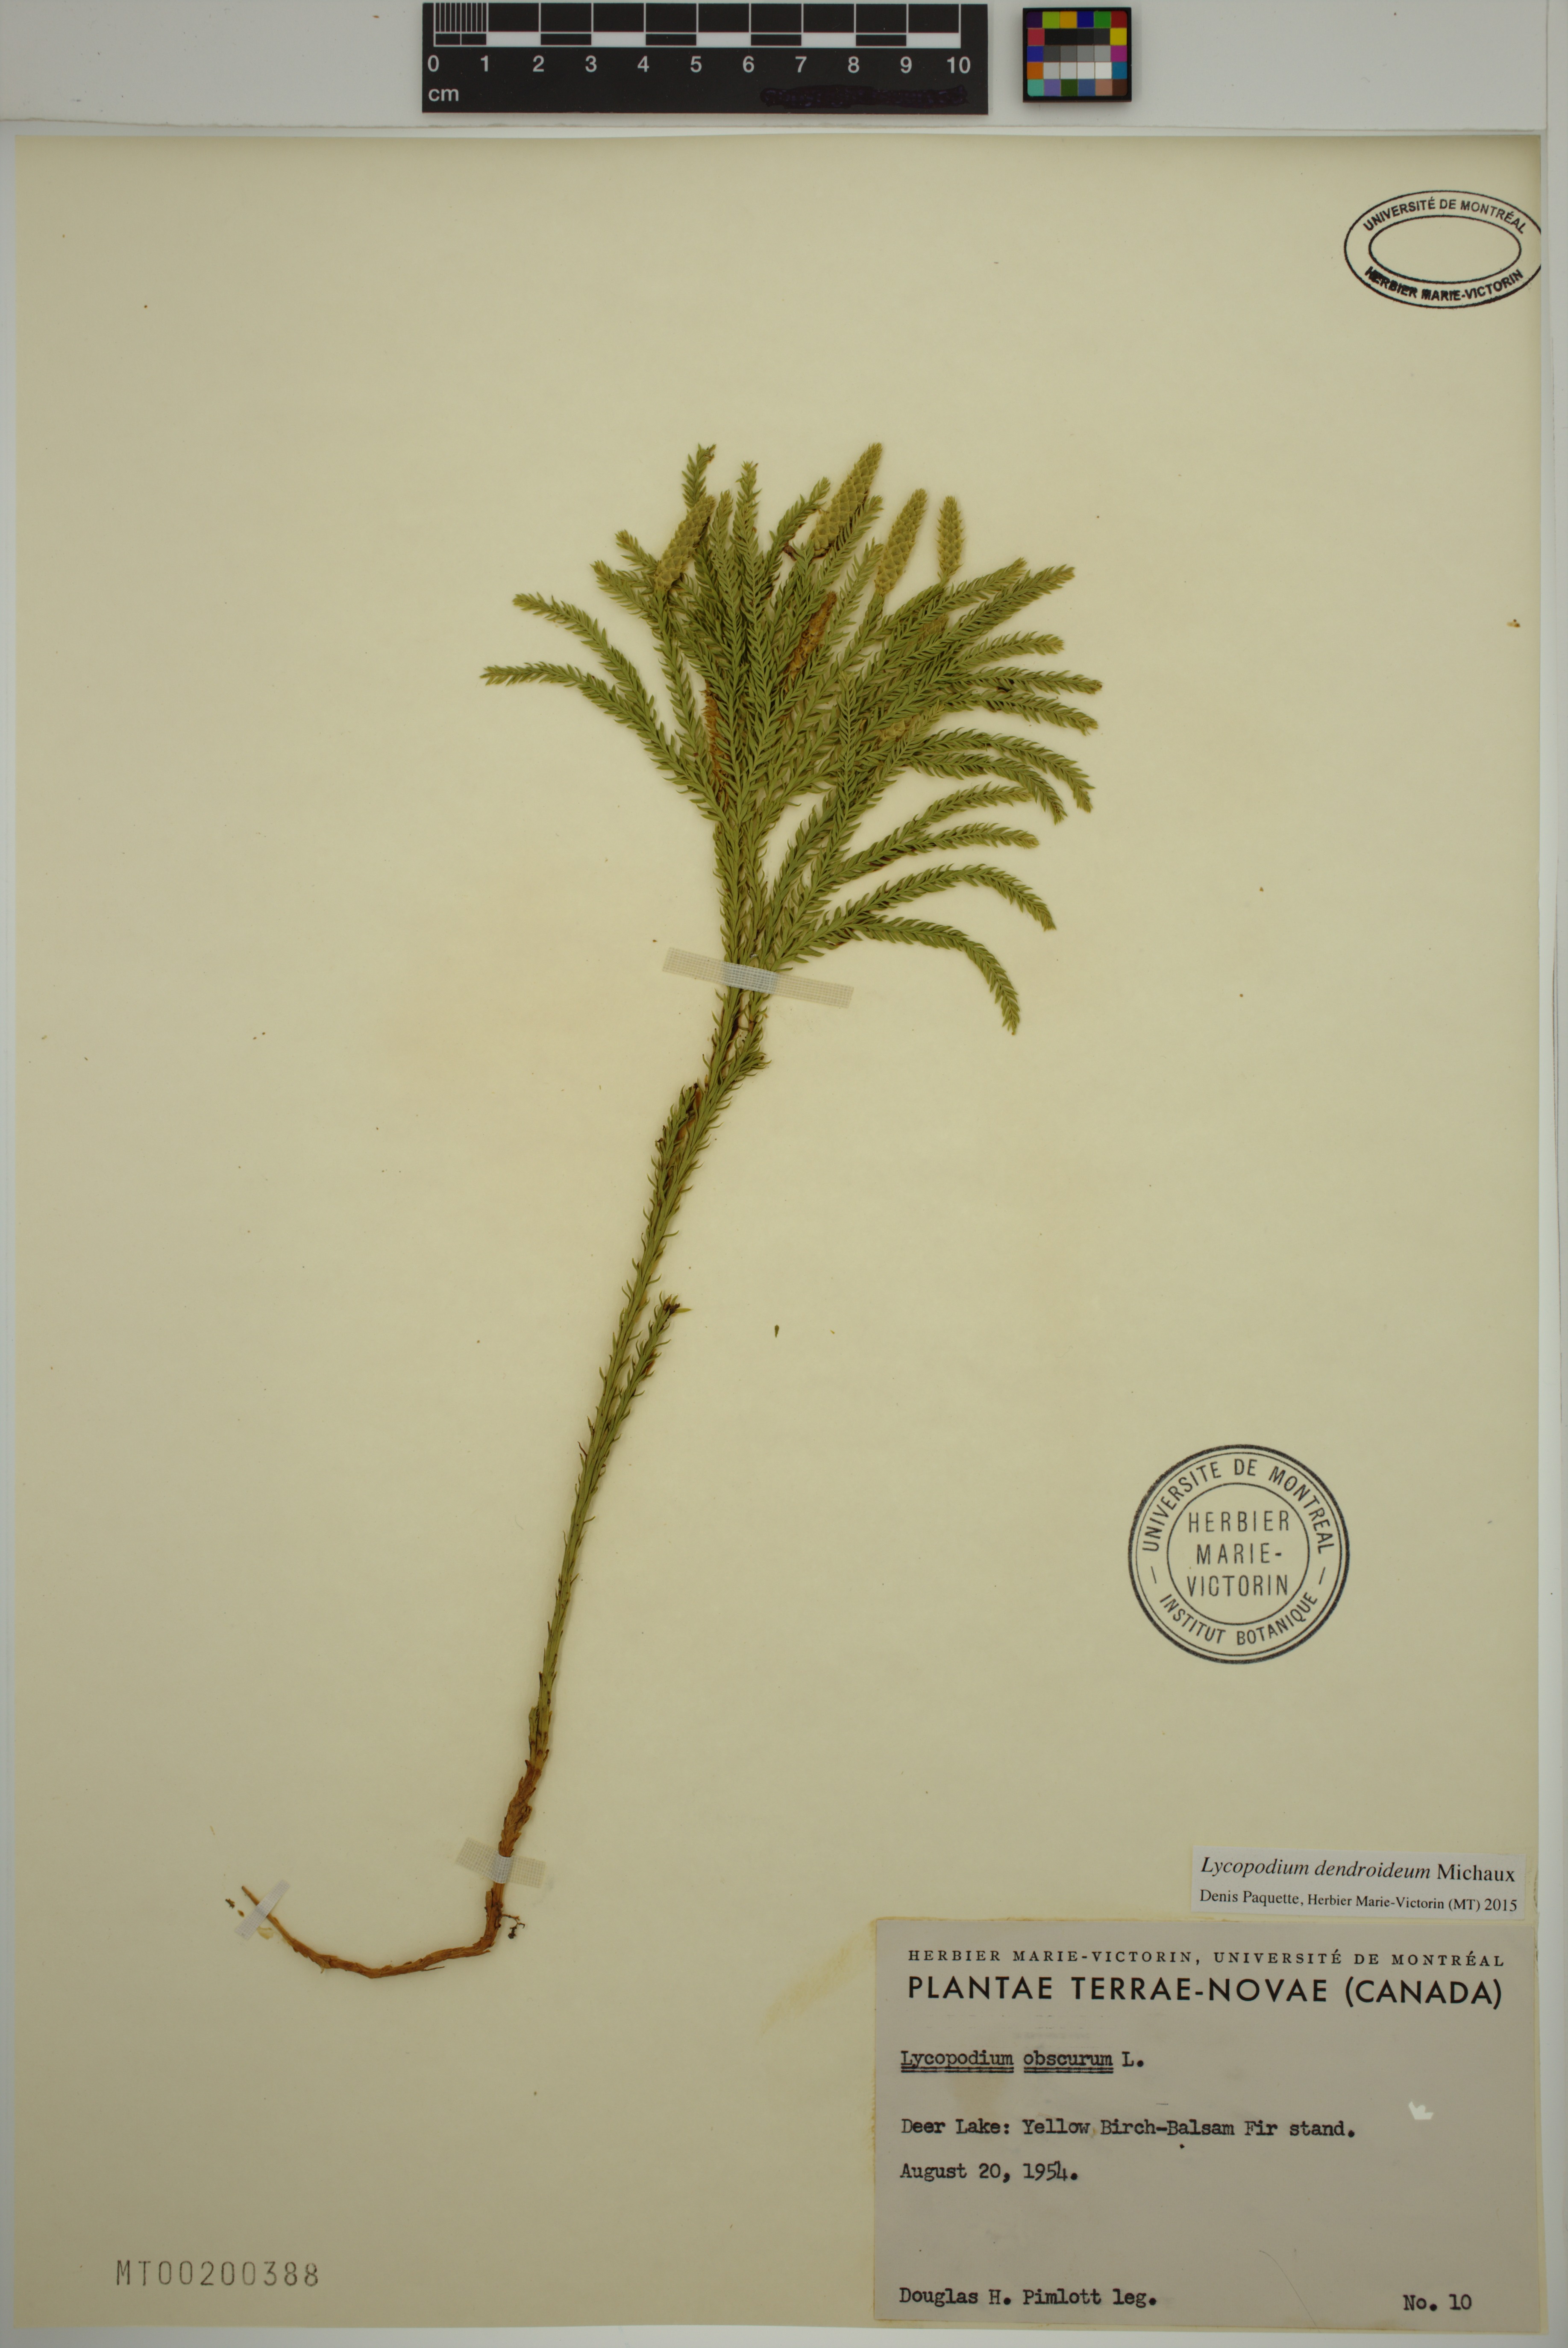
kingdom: Plantae
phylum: Tracheophyta
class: Lycopodiopsida
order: Lycopodiales
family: Lycopodiaceae
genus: Dendrolycopodium
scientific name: Dendrolycopodium dendroideum
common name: Northern tree-clubmoss
